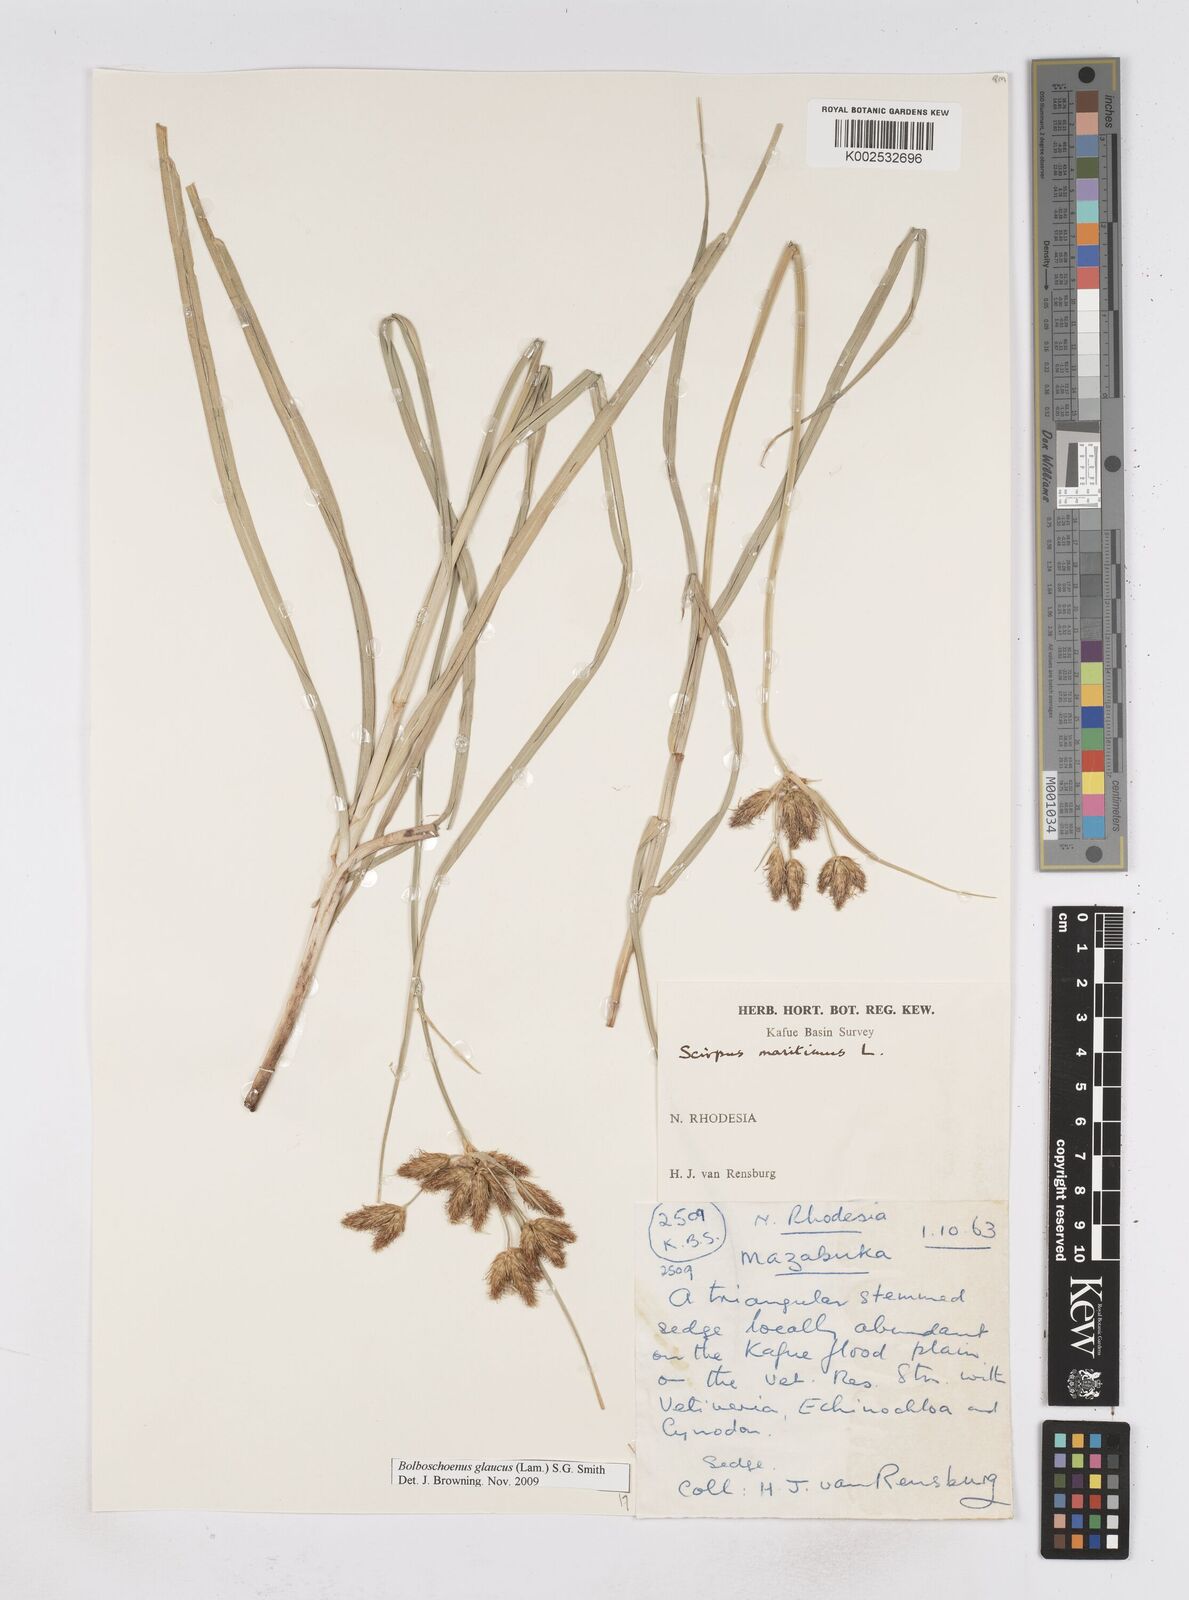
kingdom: Plantae
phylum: Tracheophyta
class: Liliopsida
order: Poales
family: Cyperaceae
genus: Bolboschoenus
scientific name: Bolboschoenus glaucus
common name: Tuberous bulrush
